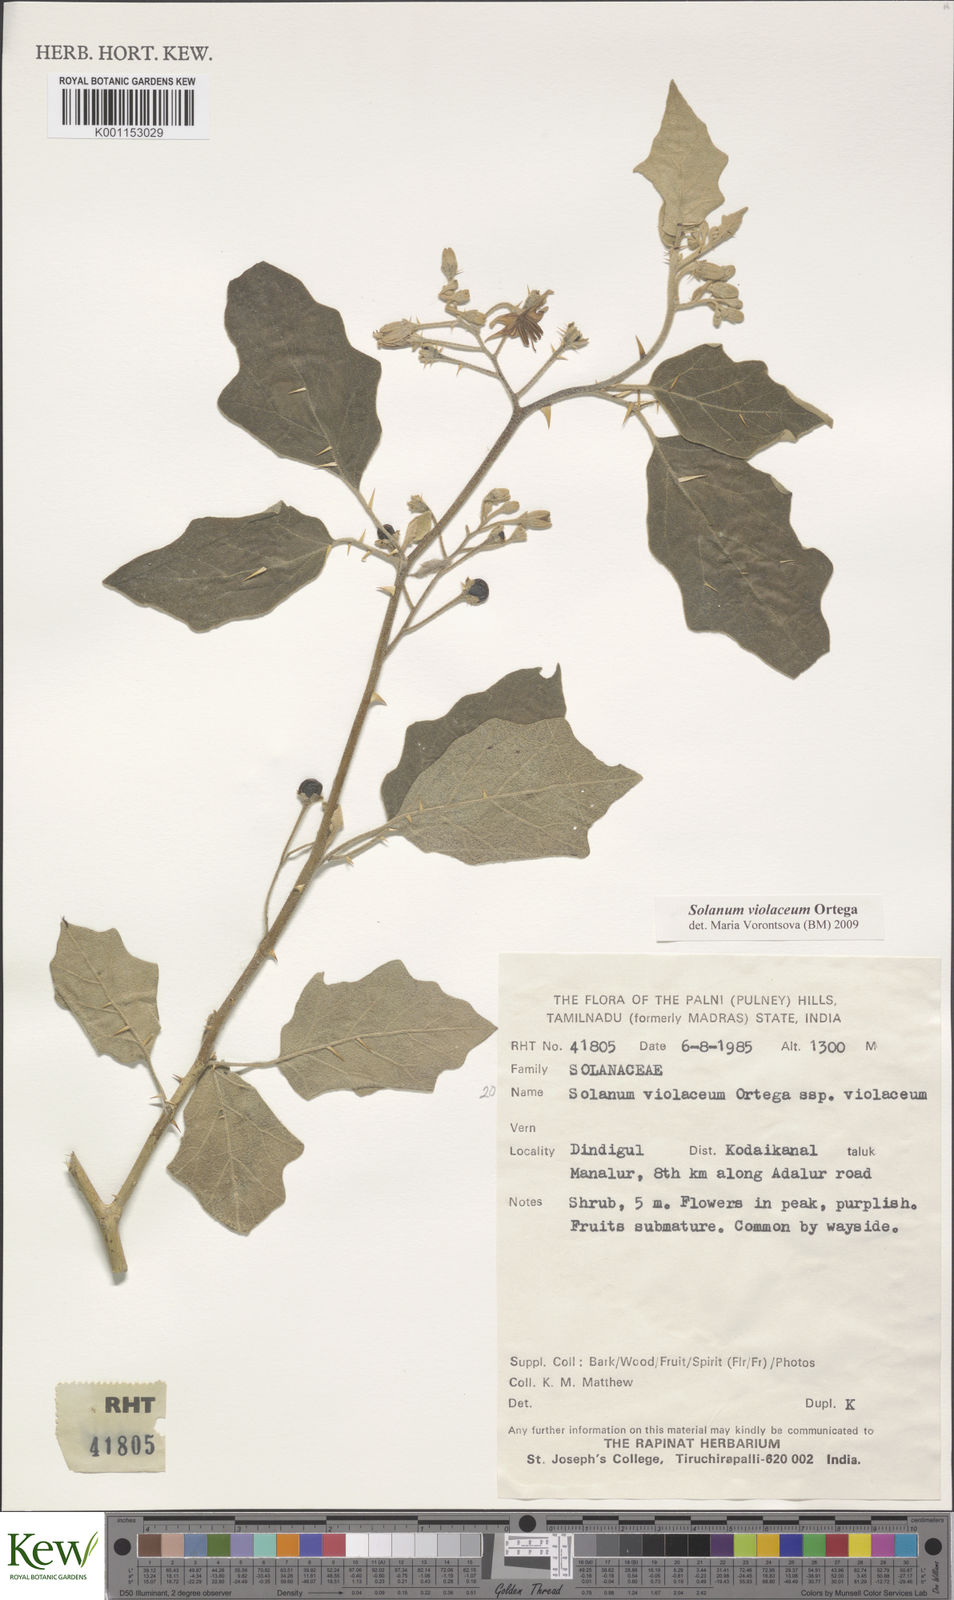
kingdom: Plantae
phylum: Tracheophyta
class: Magnoliopsida
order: Solanales
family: Solanaceae
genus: Solanum
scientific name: Solanum violaceum
